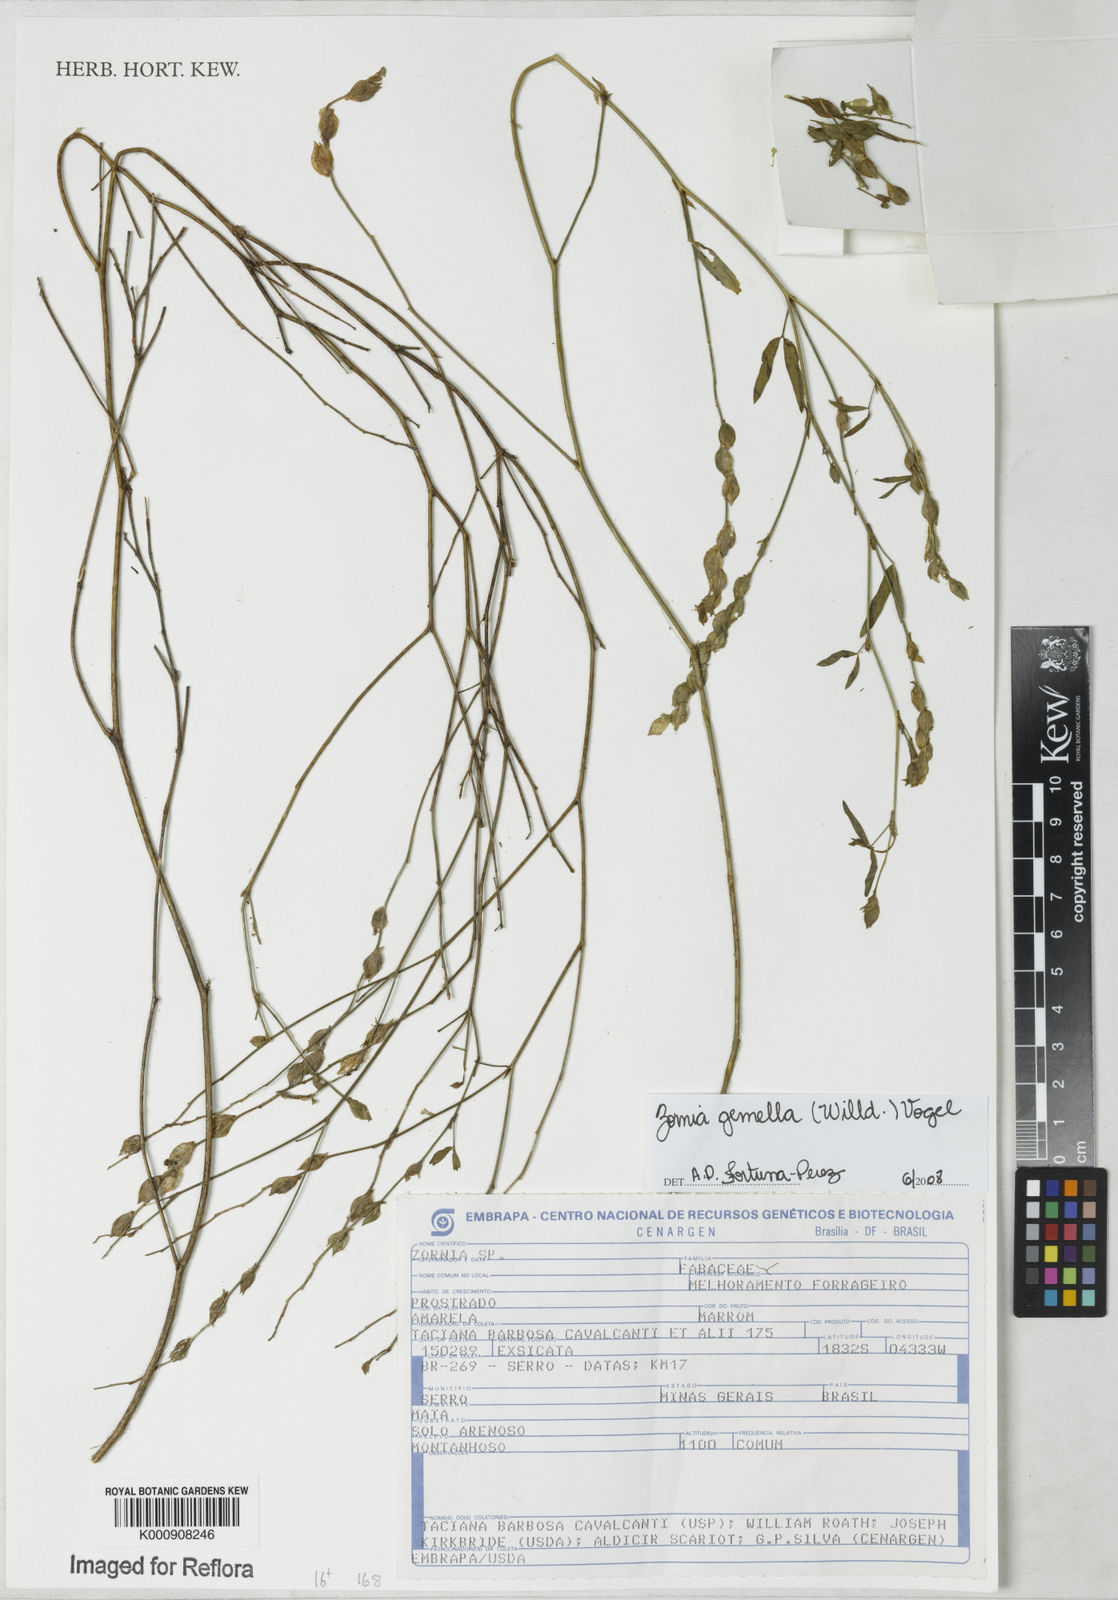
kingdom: Plantae
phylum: Tracheophyta
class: Magnoliopsida
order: Fabales
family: Fabaceae
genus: Zornia
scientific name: Zornia latifolia
